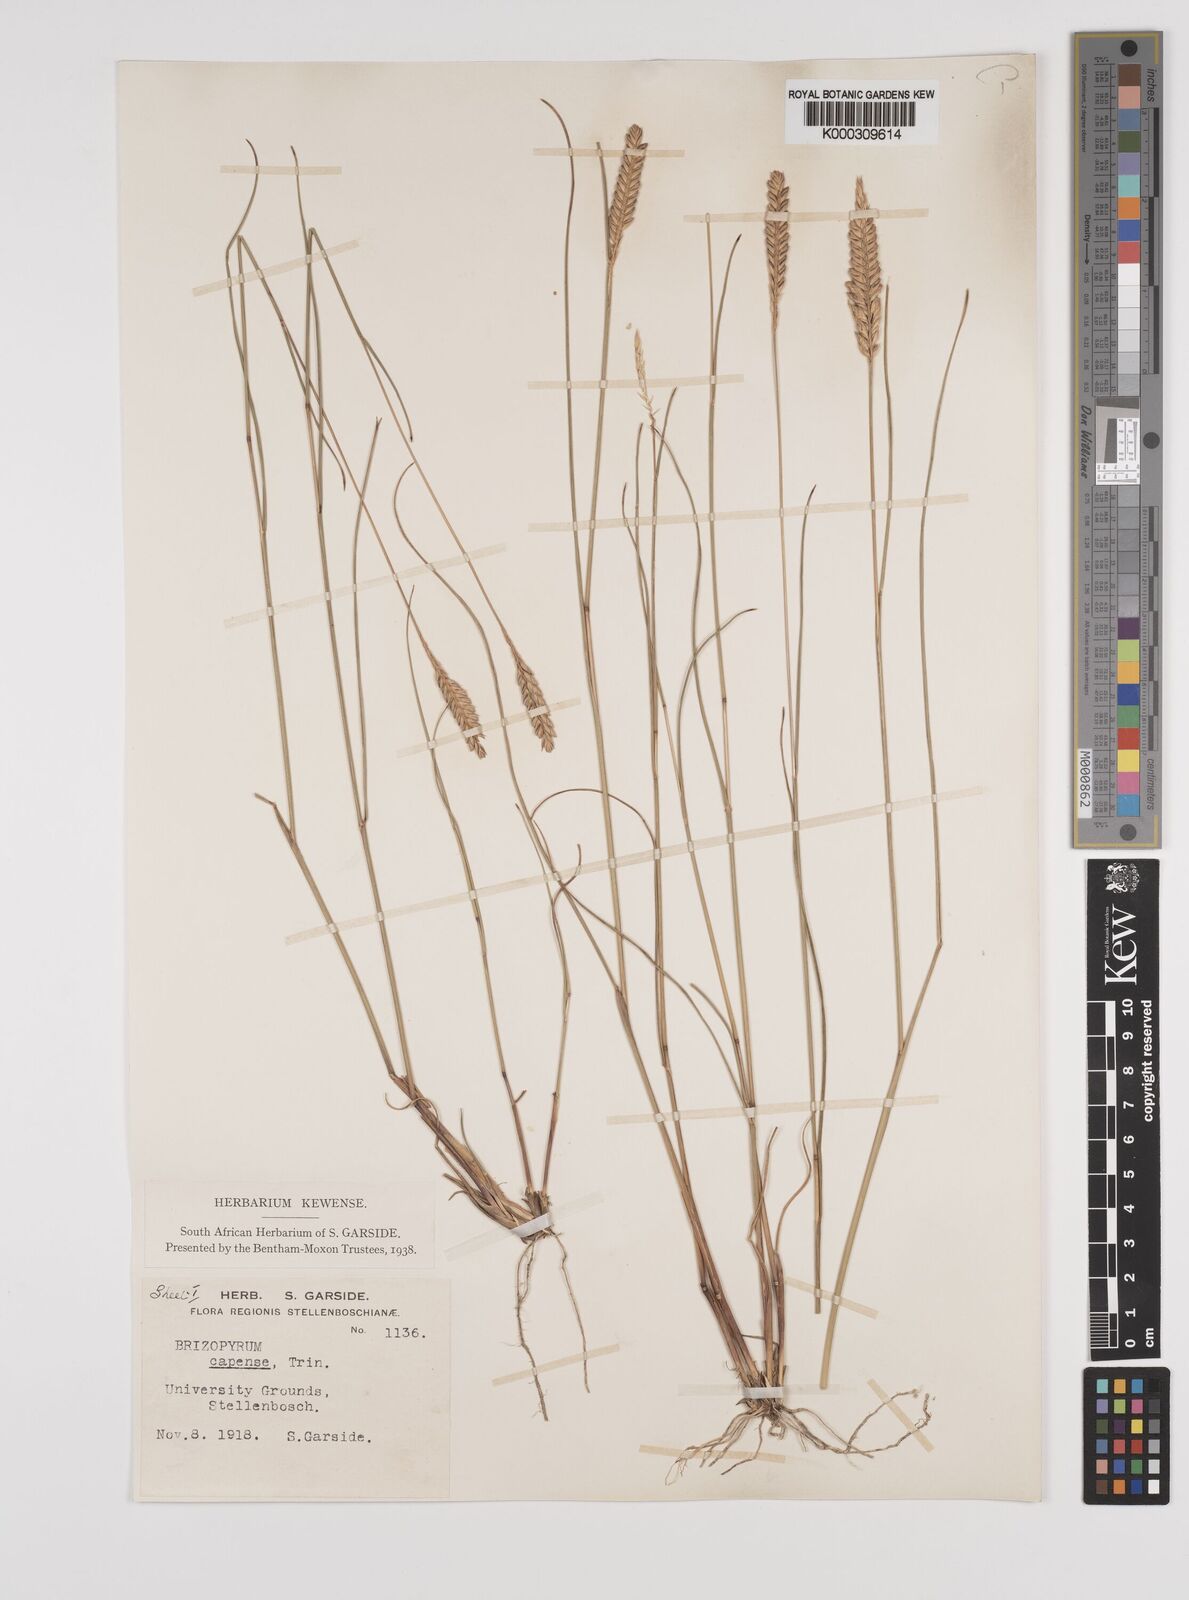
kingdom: Plantae
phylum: Tracheophyta
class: Liliopsida
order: Poales
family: Poaceae
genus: Tribolium
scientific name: Tribolium uniolae
